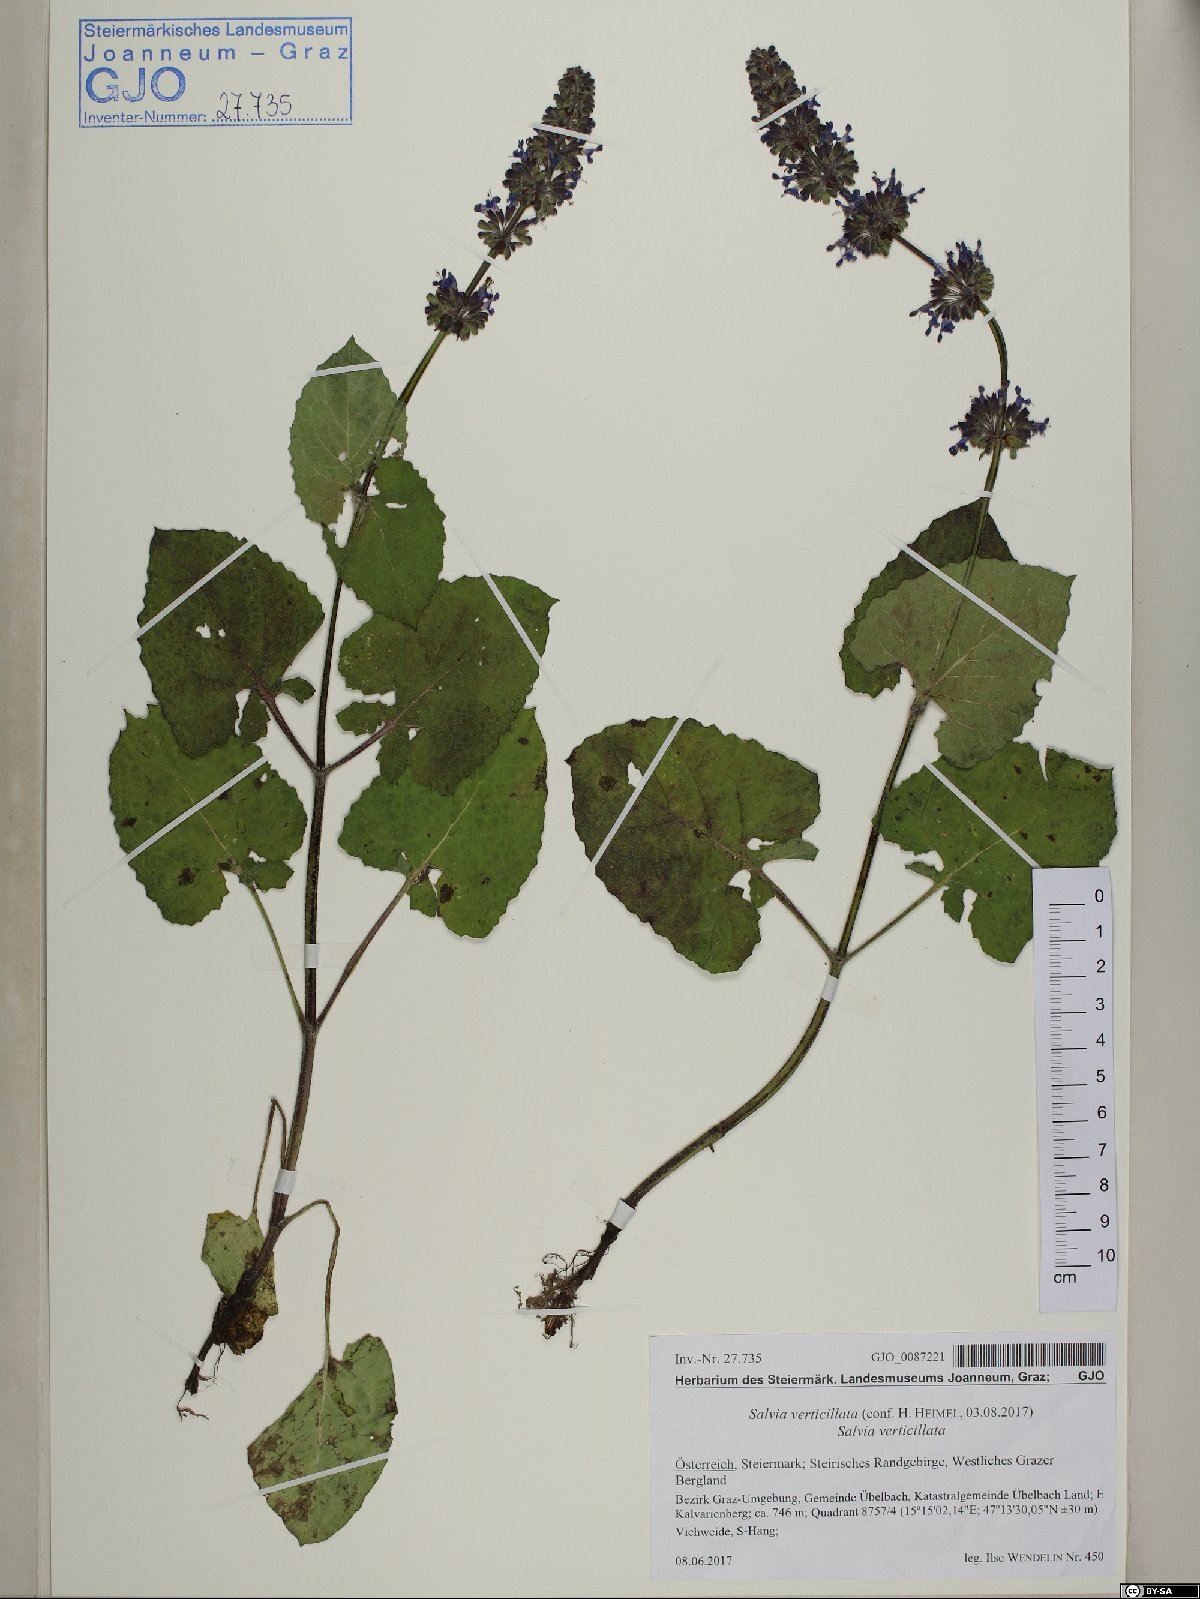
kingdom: Plantae
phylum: Tracheophyta
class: Magnoliopsida
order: Lamiales
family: Lamiaceae
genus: Salvia
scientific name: Salvia verticillata
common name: Whorled clary
